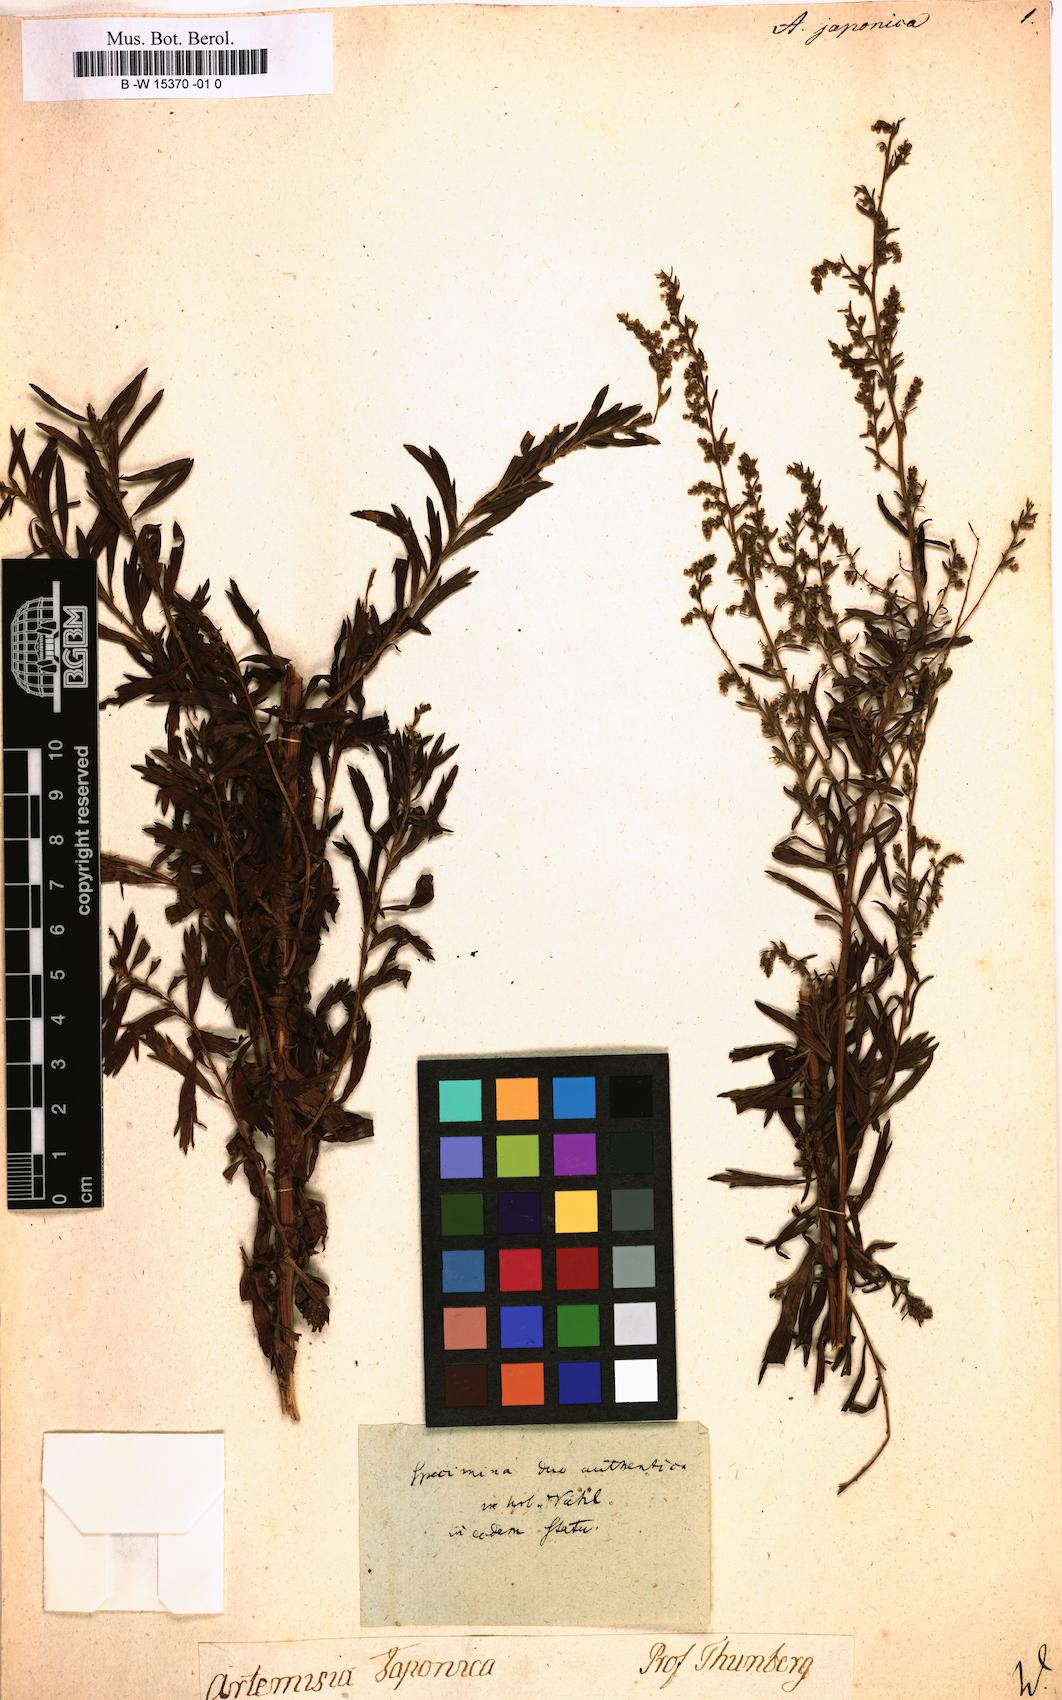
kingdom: Plantae
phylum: Tracheophyta
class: Magnoliopsida
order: Asterales
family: Asteraceae
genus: Artemisia
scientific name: Artemisia japonica
